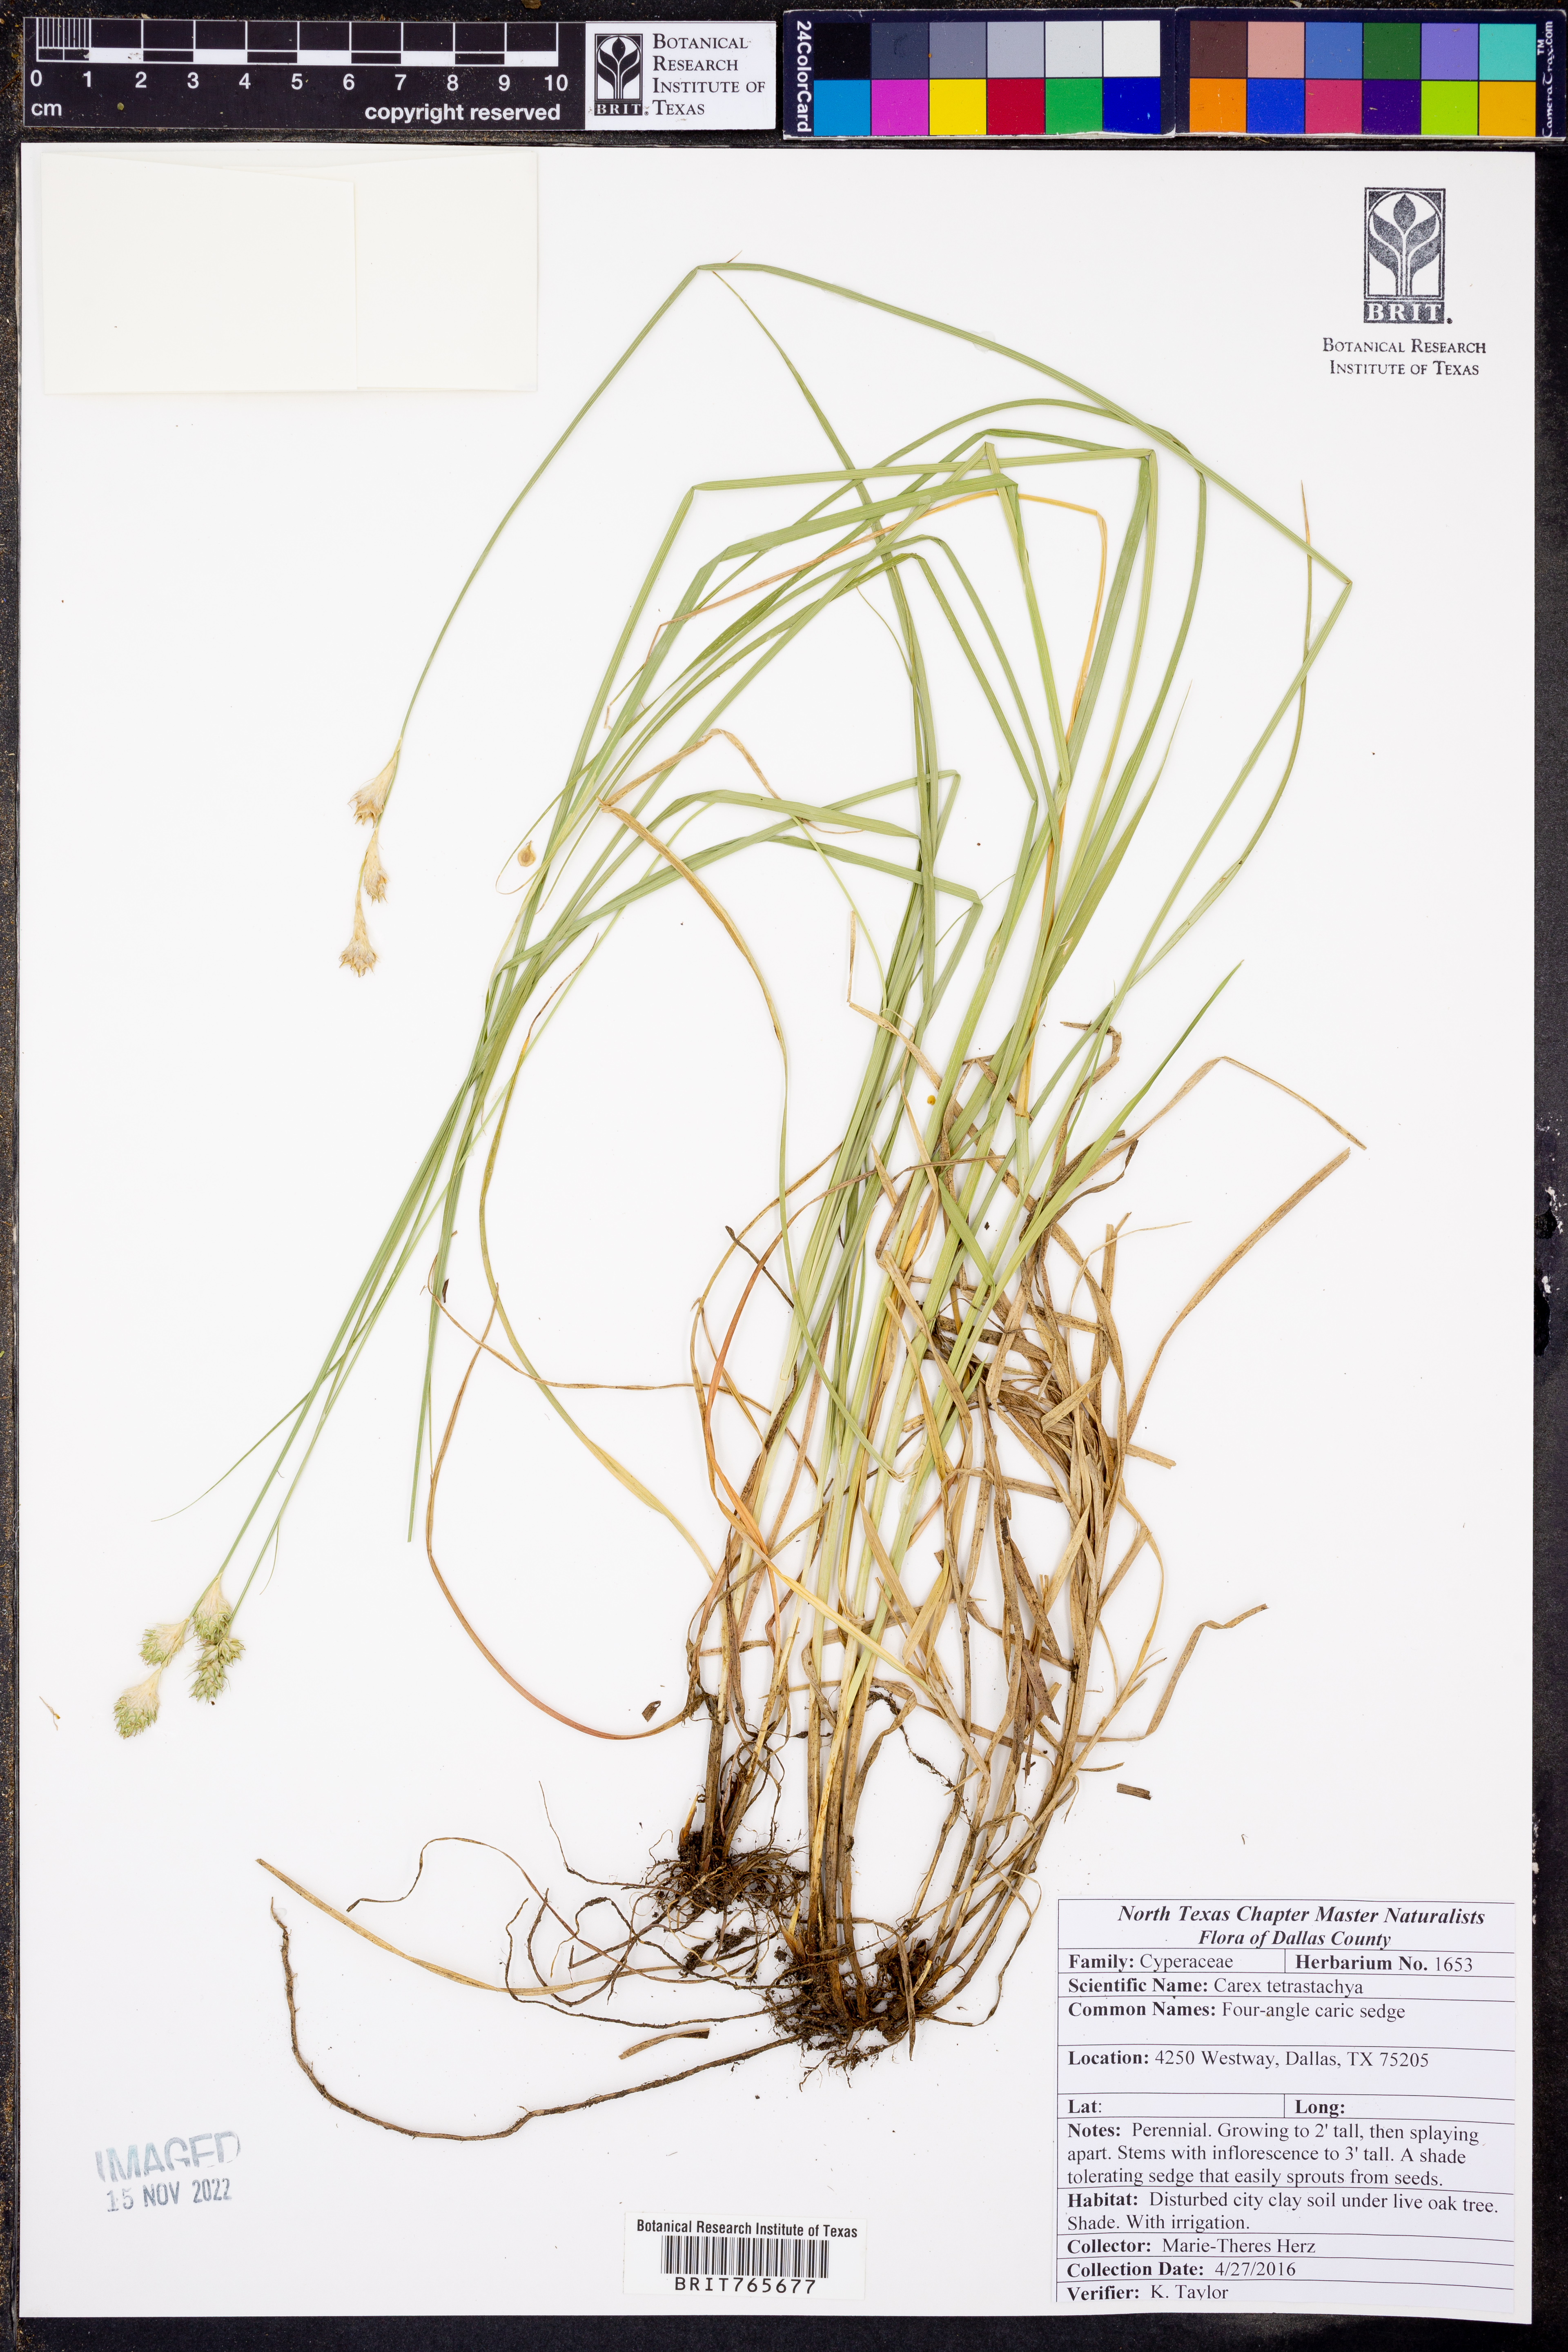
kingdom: Plantae
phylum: Tracheophyta
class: Liliopsida
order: Poales
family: Cyperaceae
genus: Carex
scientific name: Carex tetrastachya
